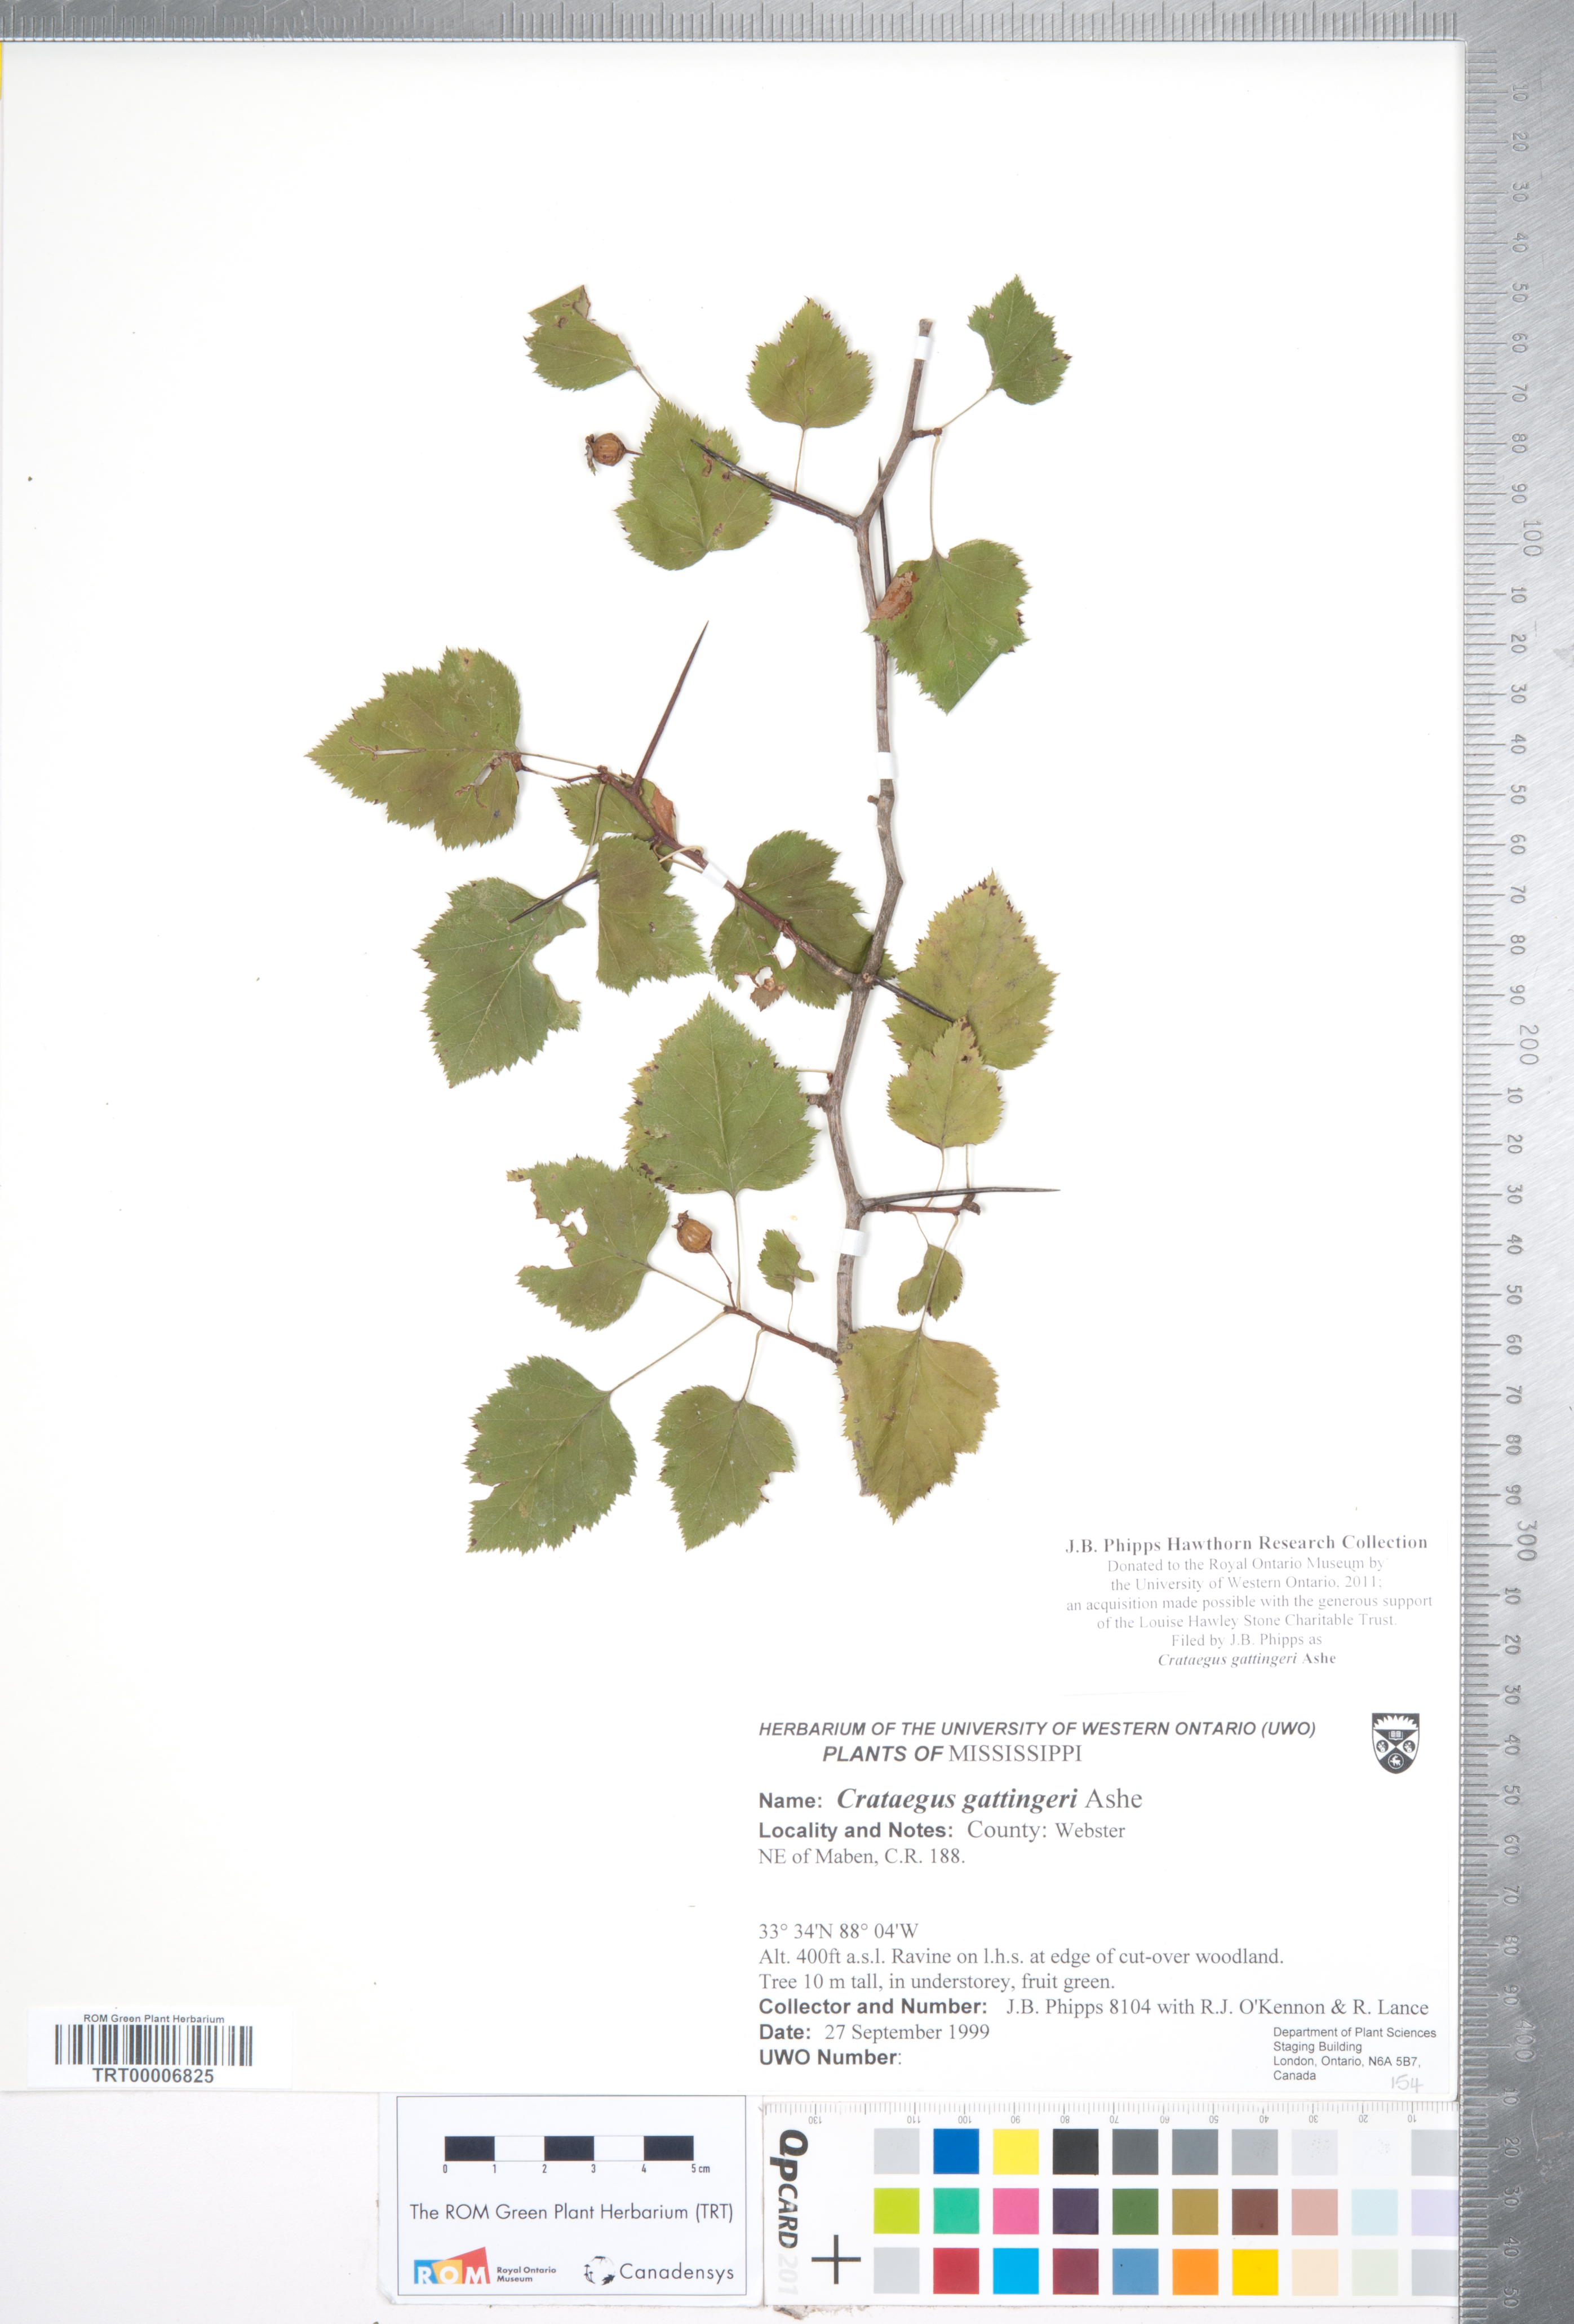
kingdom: Plantae
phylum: Tracheophyta
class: Magnoliopsida
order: Rosales
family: Rosaceae
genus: Crataegus
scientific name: Crataegus gattingeri
